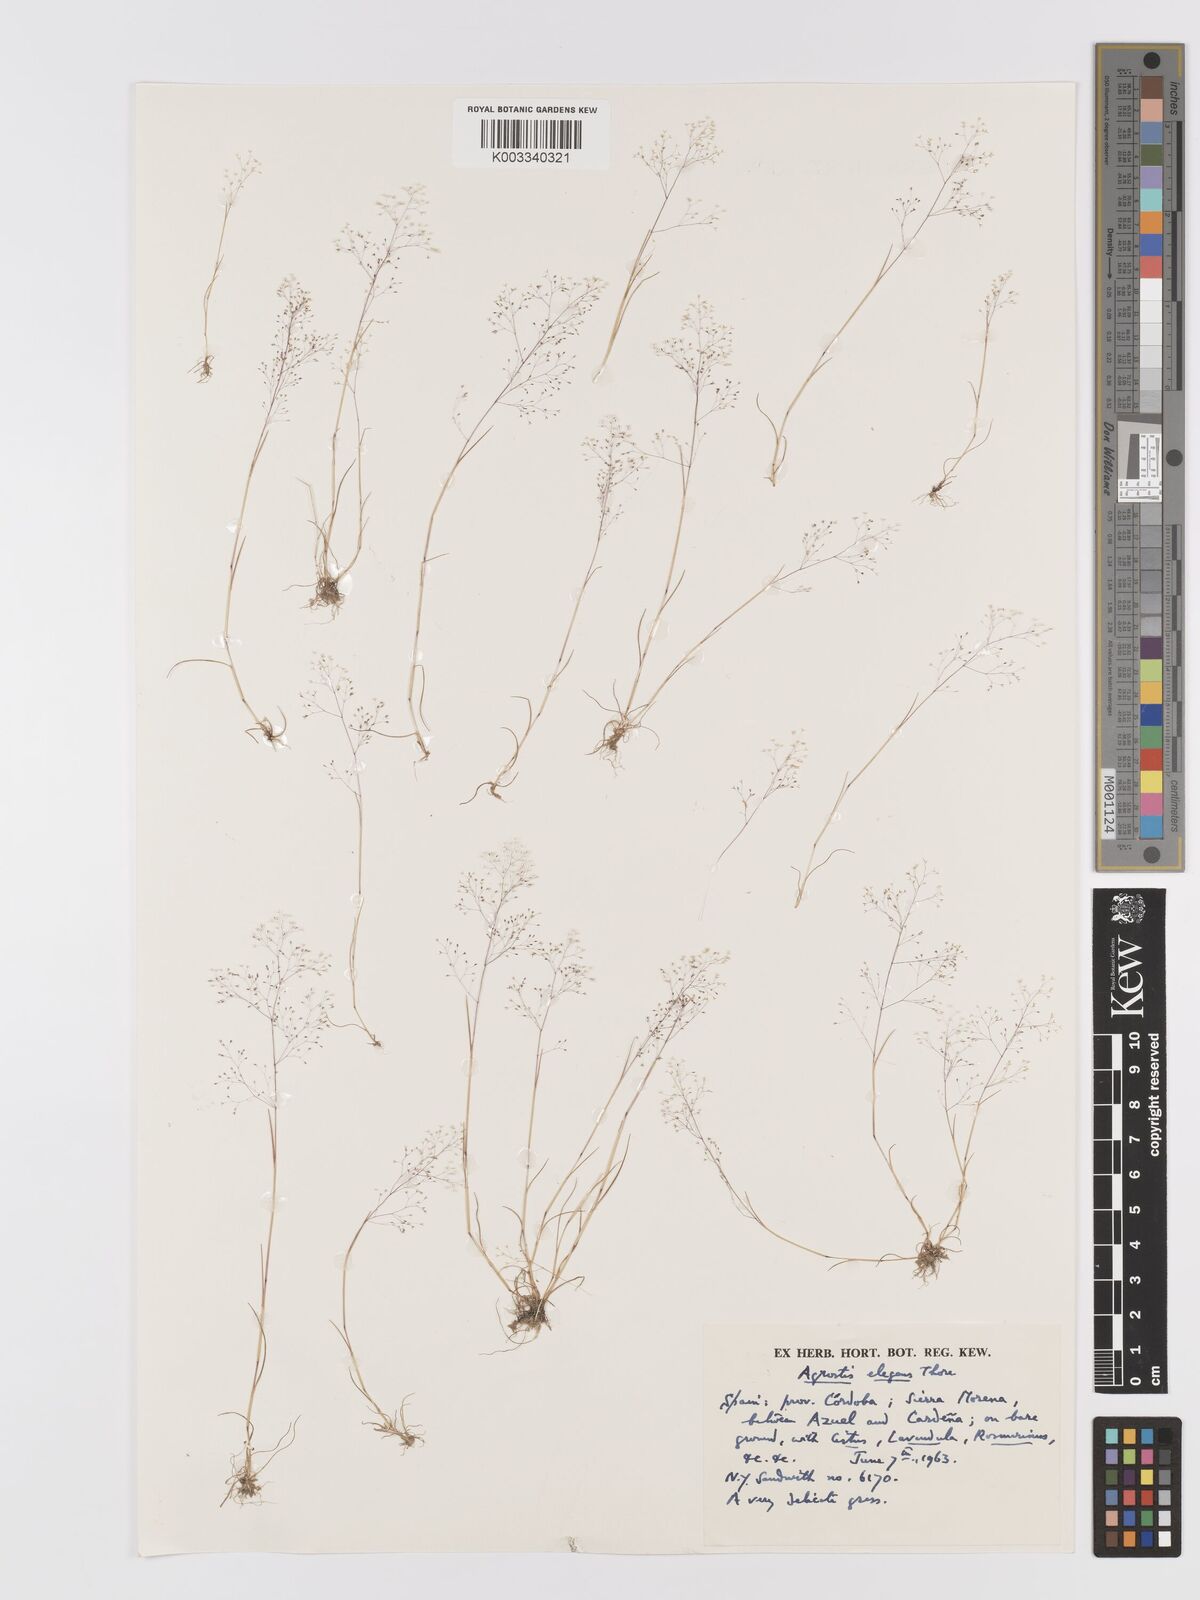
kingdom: Plantae
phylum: Tracheophyta
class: Liliopsida
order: Poales
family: Poaceae
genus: Agrostis
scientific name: Agrostis tenerrima
